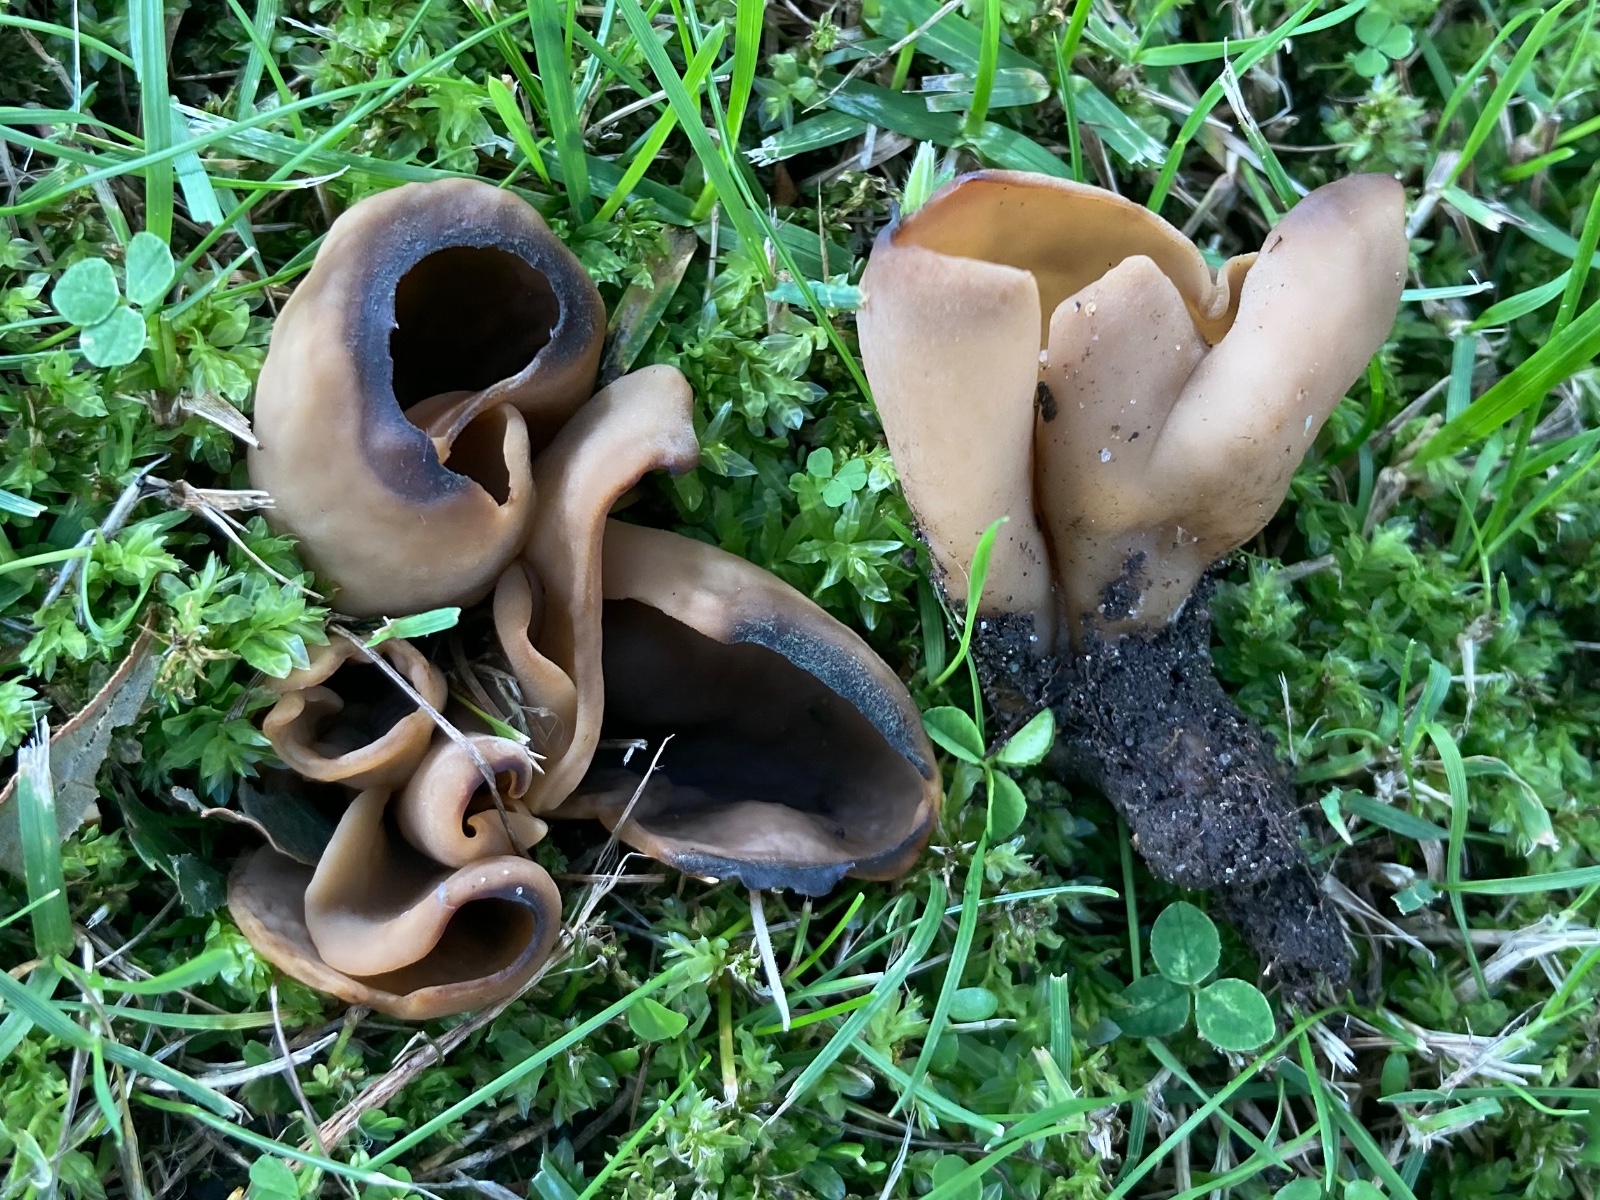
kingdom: Fungi
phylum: Ascomycota
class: Pezizomycetes
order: Pezizales
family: Otideaceae
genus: Otidea
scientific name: Otidea
